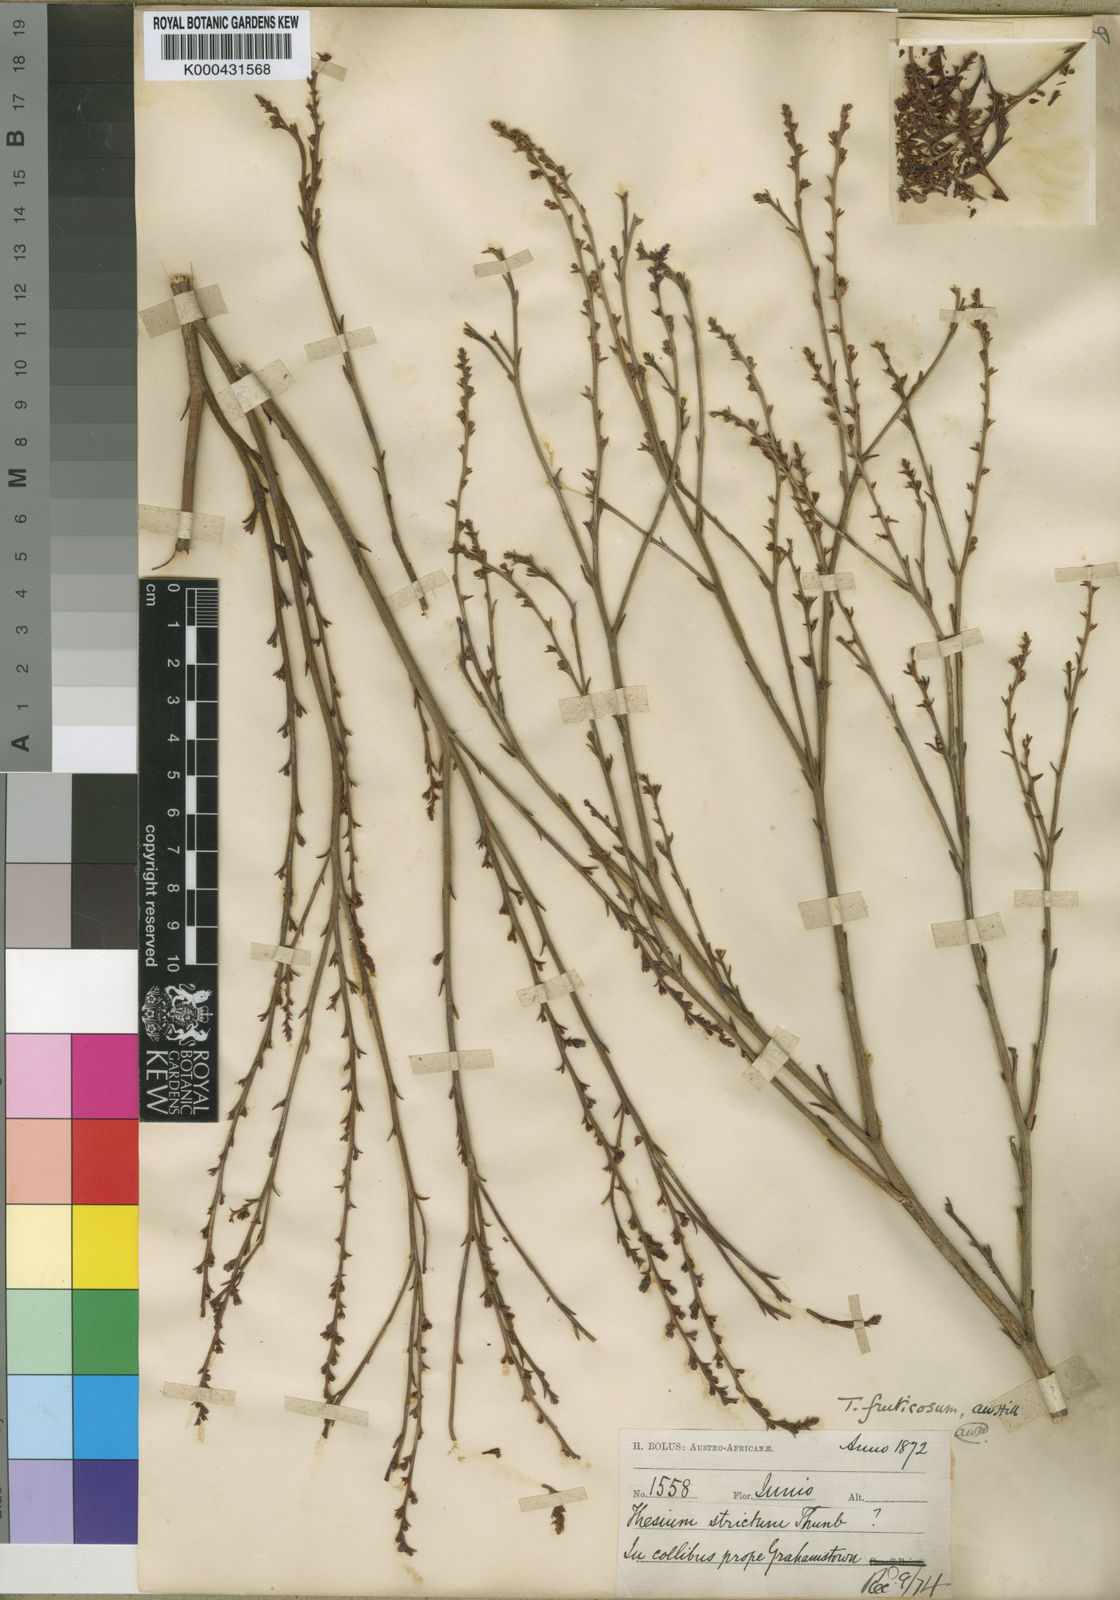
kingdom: Plantae
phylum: Tracheophyta
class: Magnoliopsida
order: Santalales
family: Thesiaceae
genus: Thesium
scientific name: Thesium fruticosum
